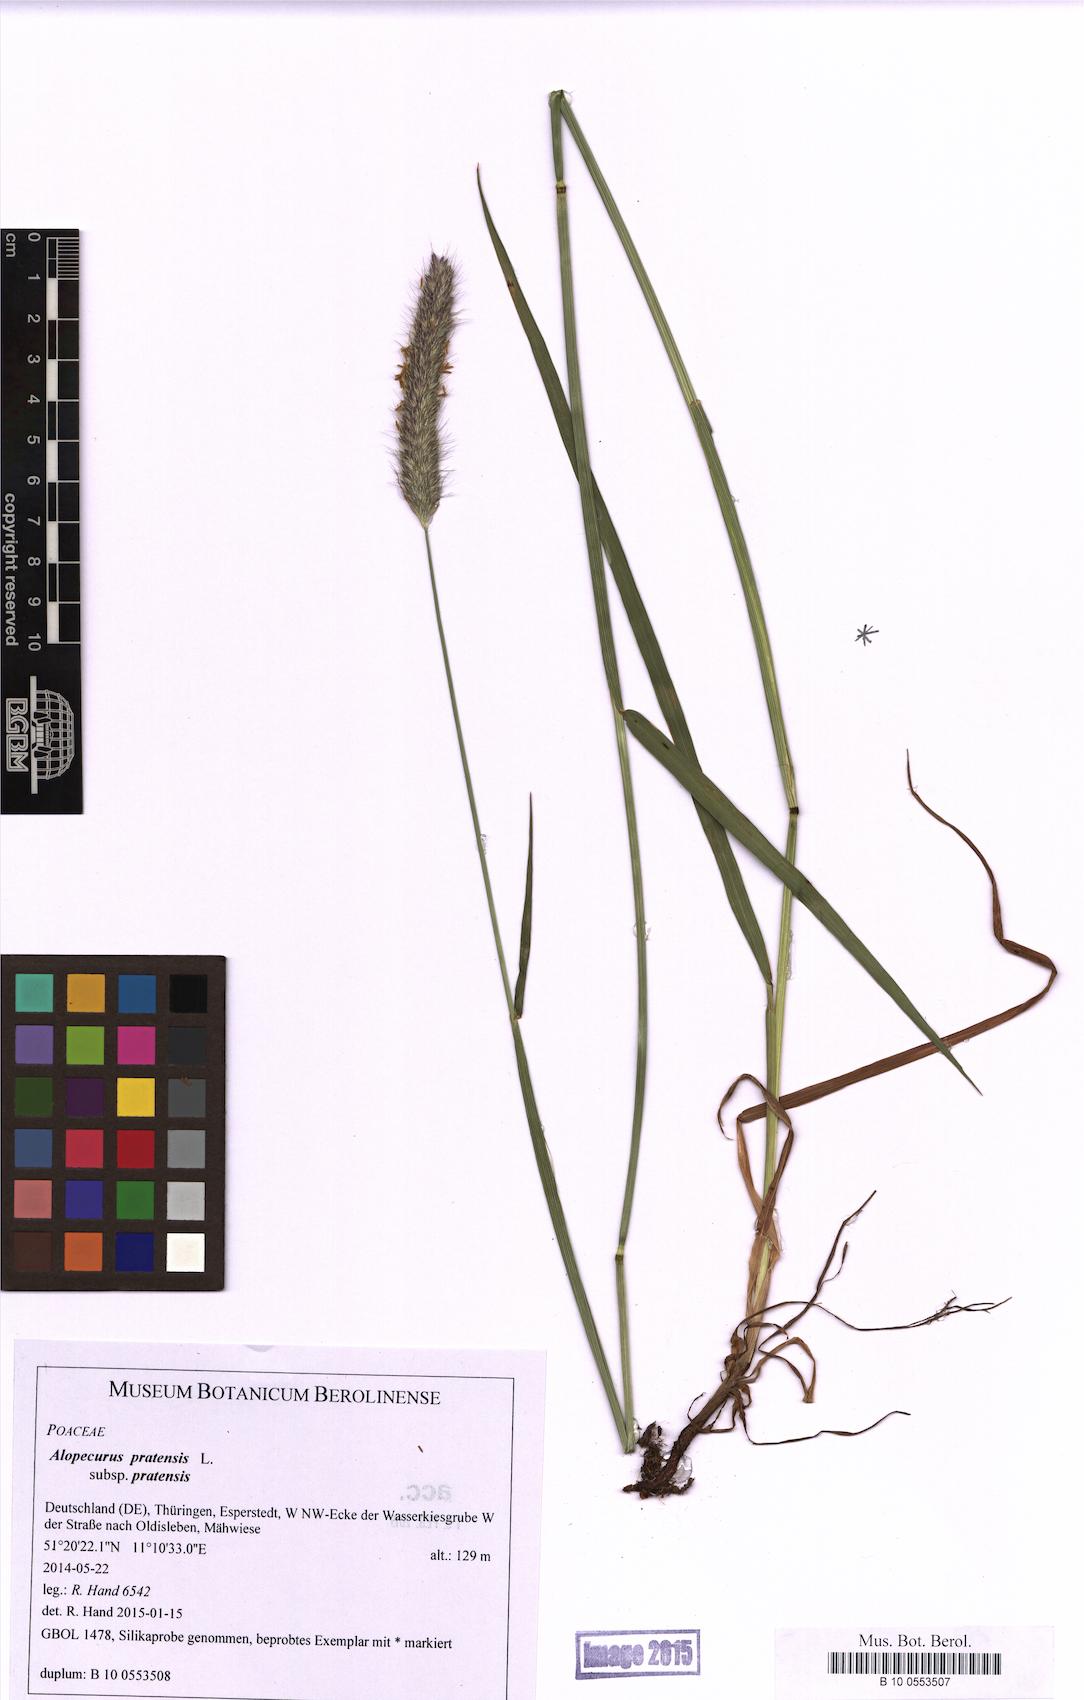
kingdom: Plantae
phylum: Tracheophyta
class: Liliopsida
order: Poales
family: Poaceae
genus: Alopecurus
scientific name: Alopecurus pratensis
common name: Meadow foxtail
